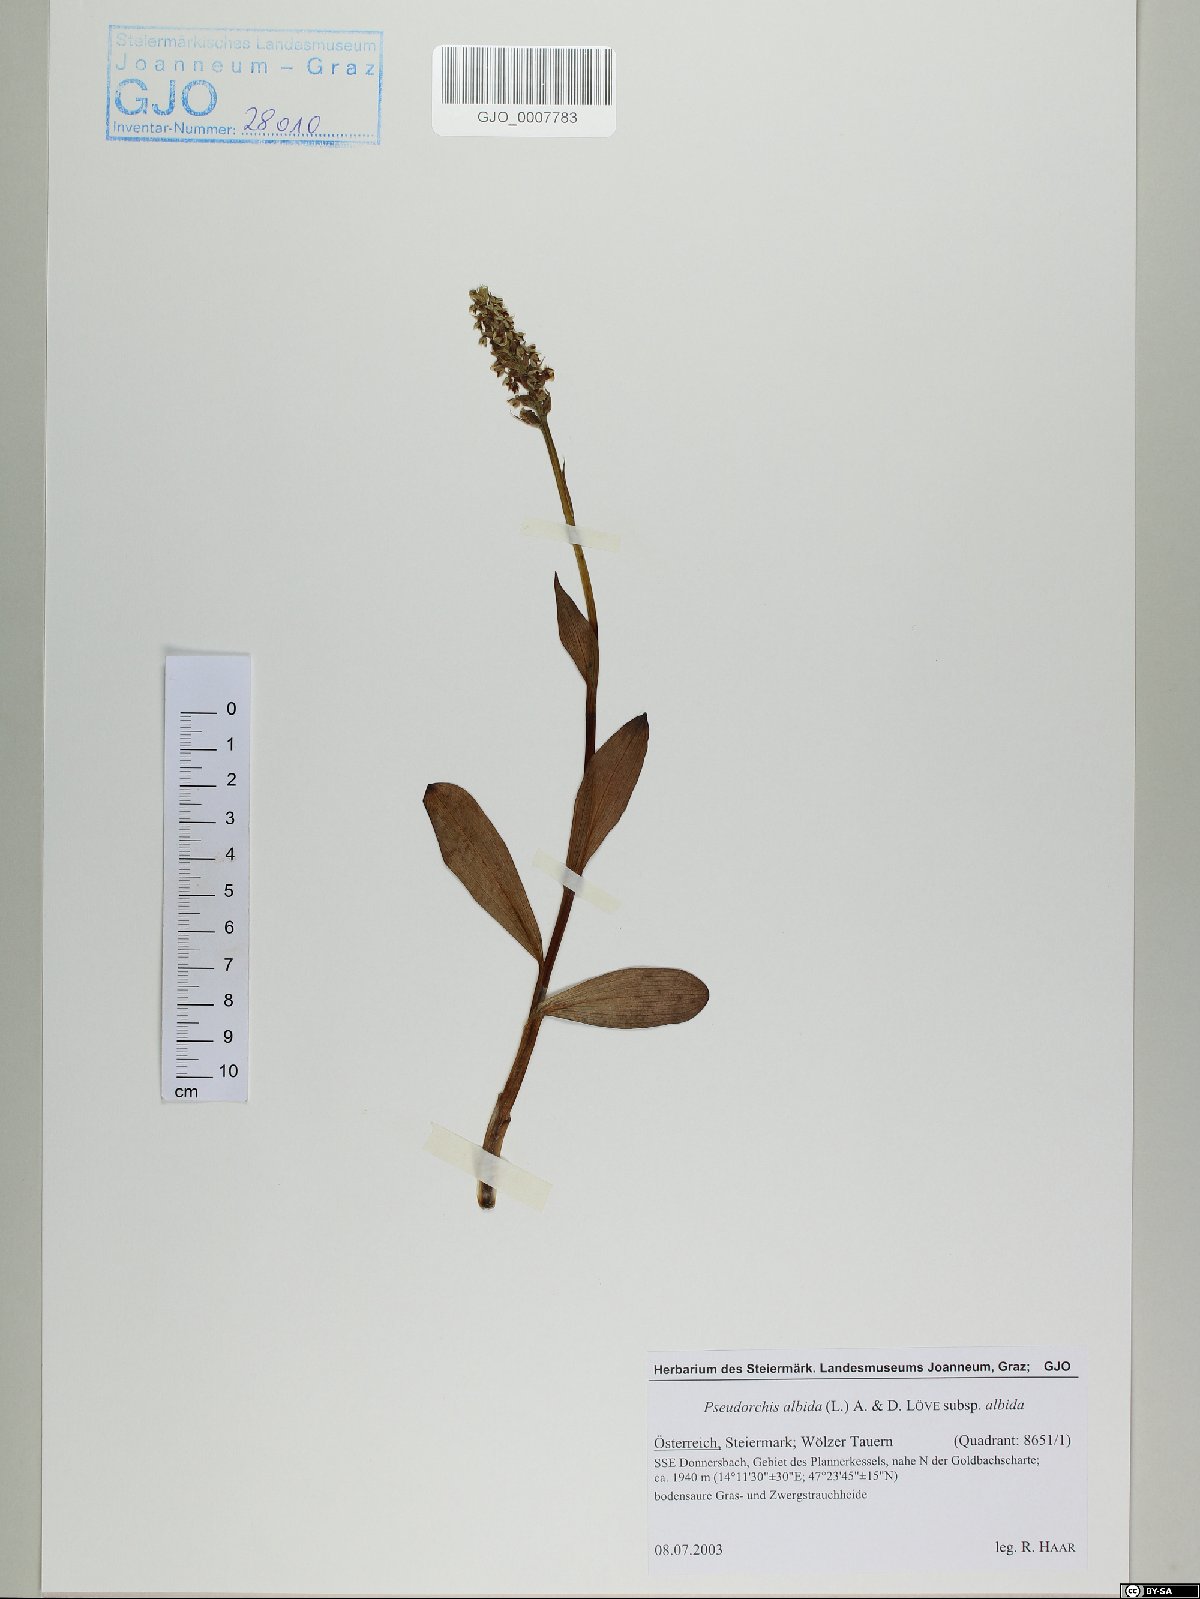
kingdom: Plantae
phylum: Tracheophyta
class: Liliopsida
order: Asparagales
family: Orchidaceae
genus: Pseudorchis
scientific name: Pseudorchis albida
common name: Small-white orchid
